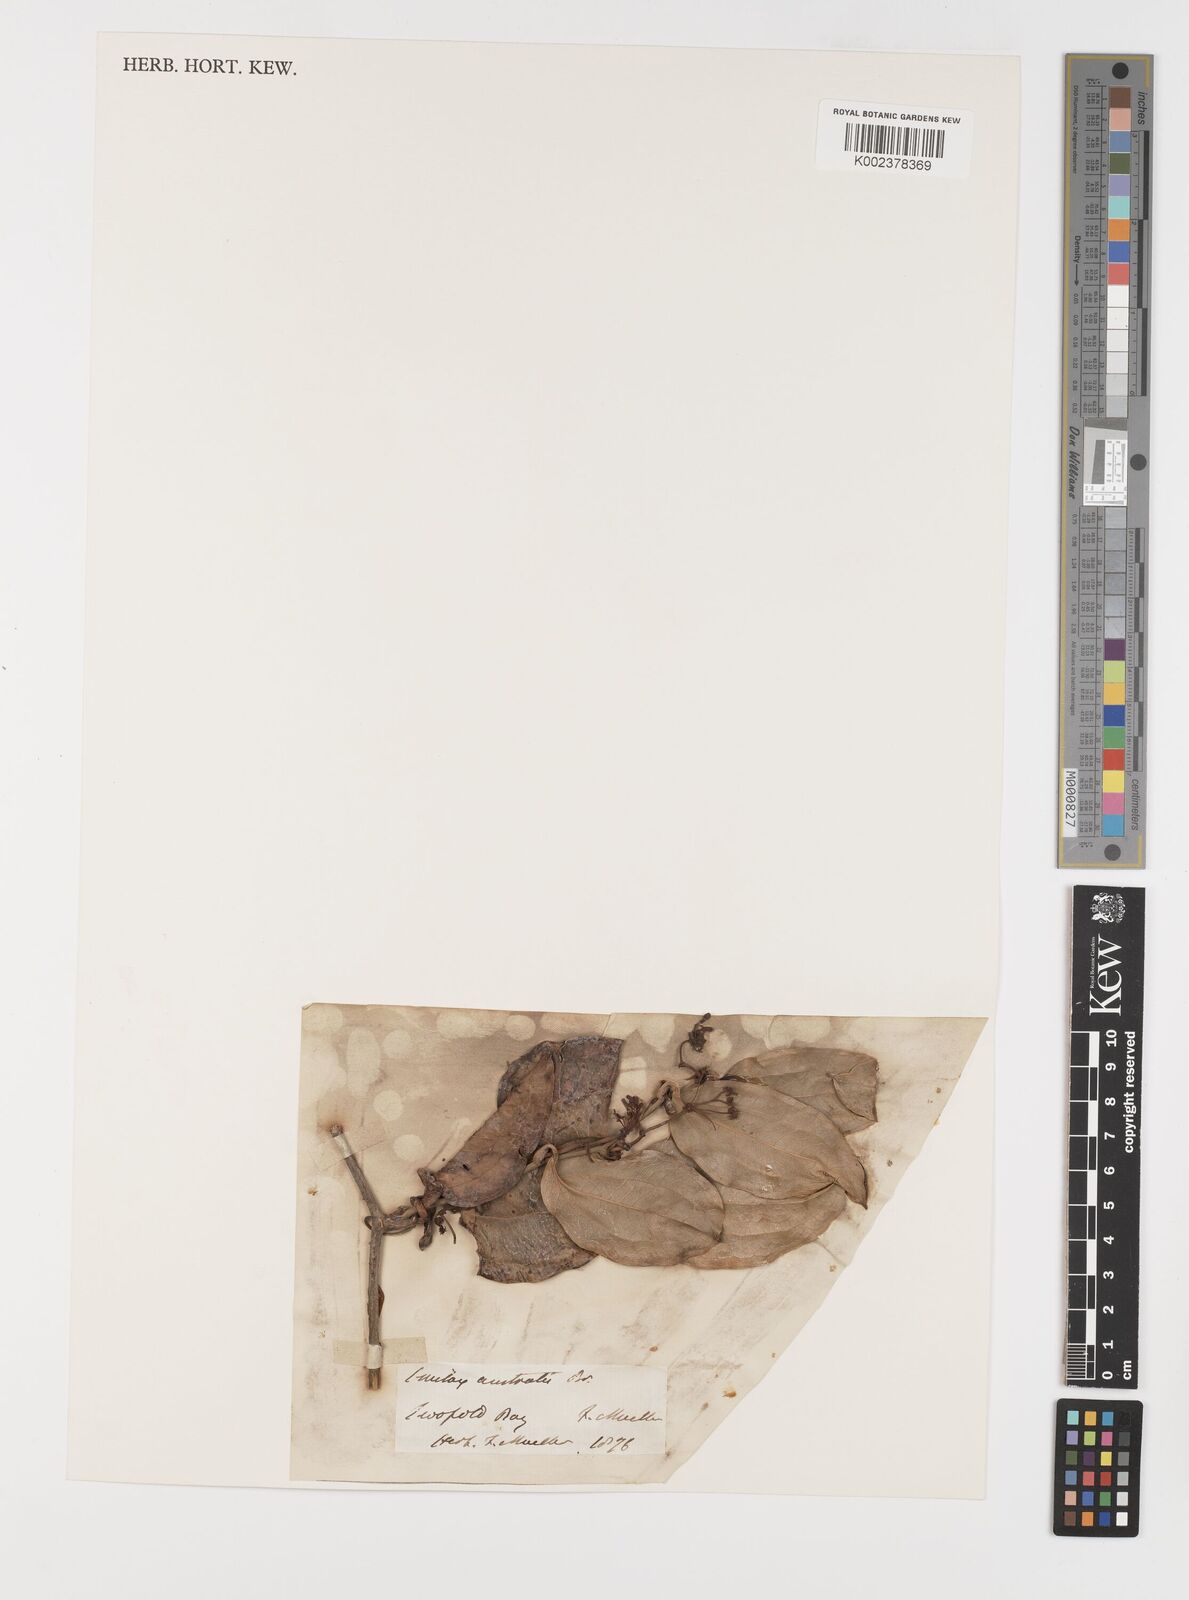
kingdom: Plantae
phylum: Tracheophyta
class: Liliopsida
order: Liliales
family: Smilacaceae
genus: Smilax
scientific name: Smilax australis
